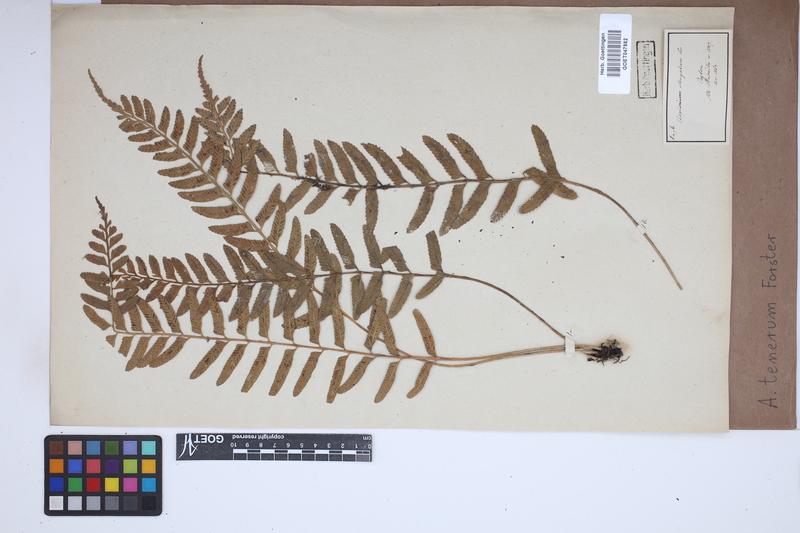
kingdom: Plantae
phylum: Tracheophyta
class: Polypodiopsida
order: Polypodiales
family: Aspleniaceae
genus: Asplenium
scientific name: Asplenium tenerum
